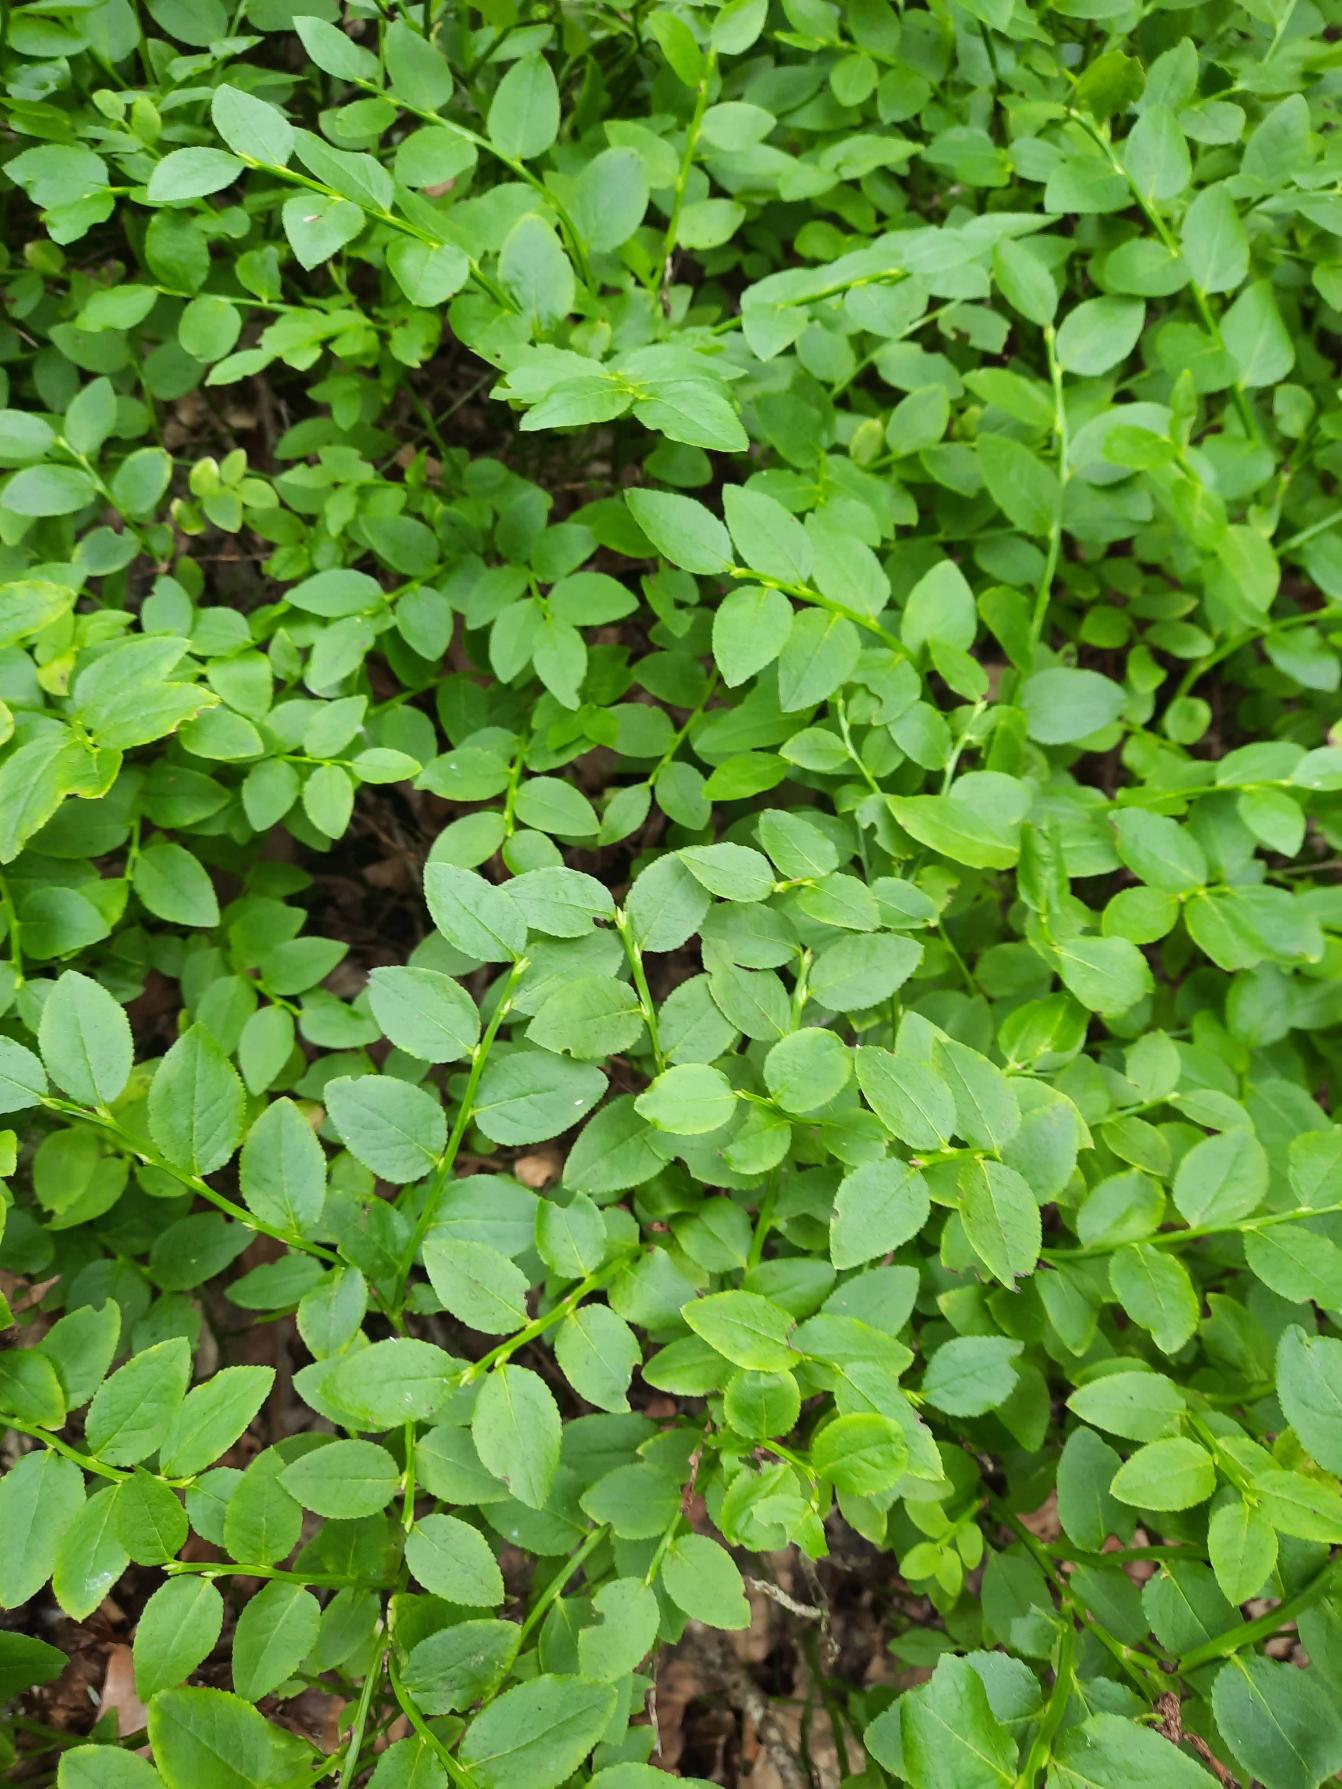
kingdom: Plantae
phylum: Tracheophyta
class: Magnoliopsida
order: Ericales
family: Ericaceae
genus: Vaccinium
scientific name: Vaccinium myrtillus
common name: Blåbær
